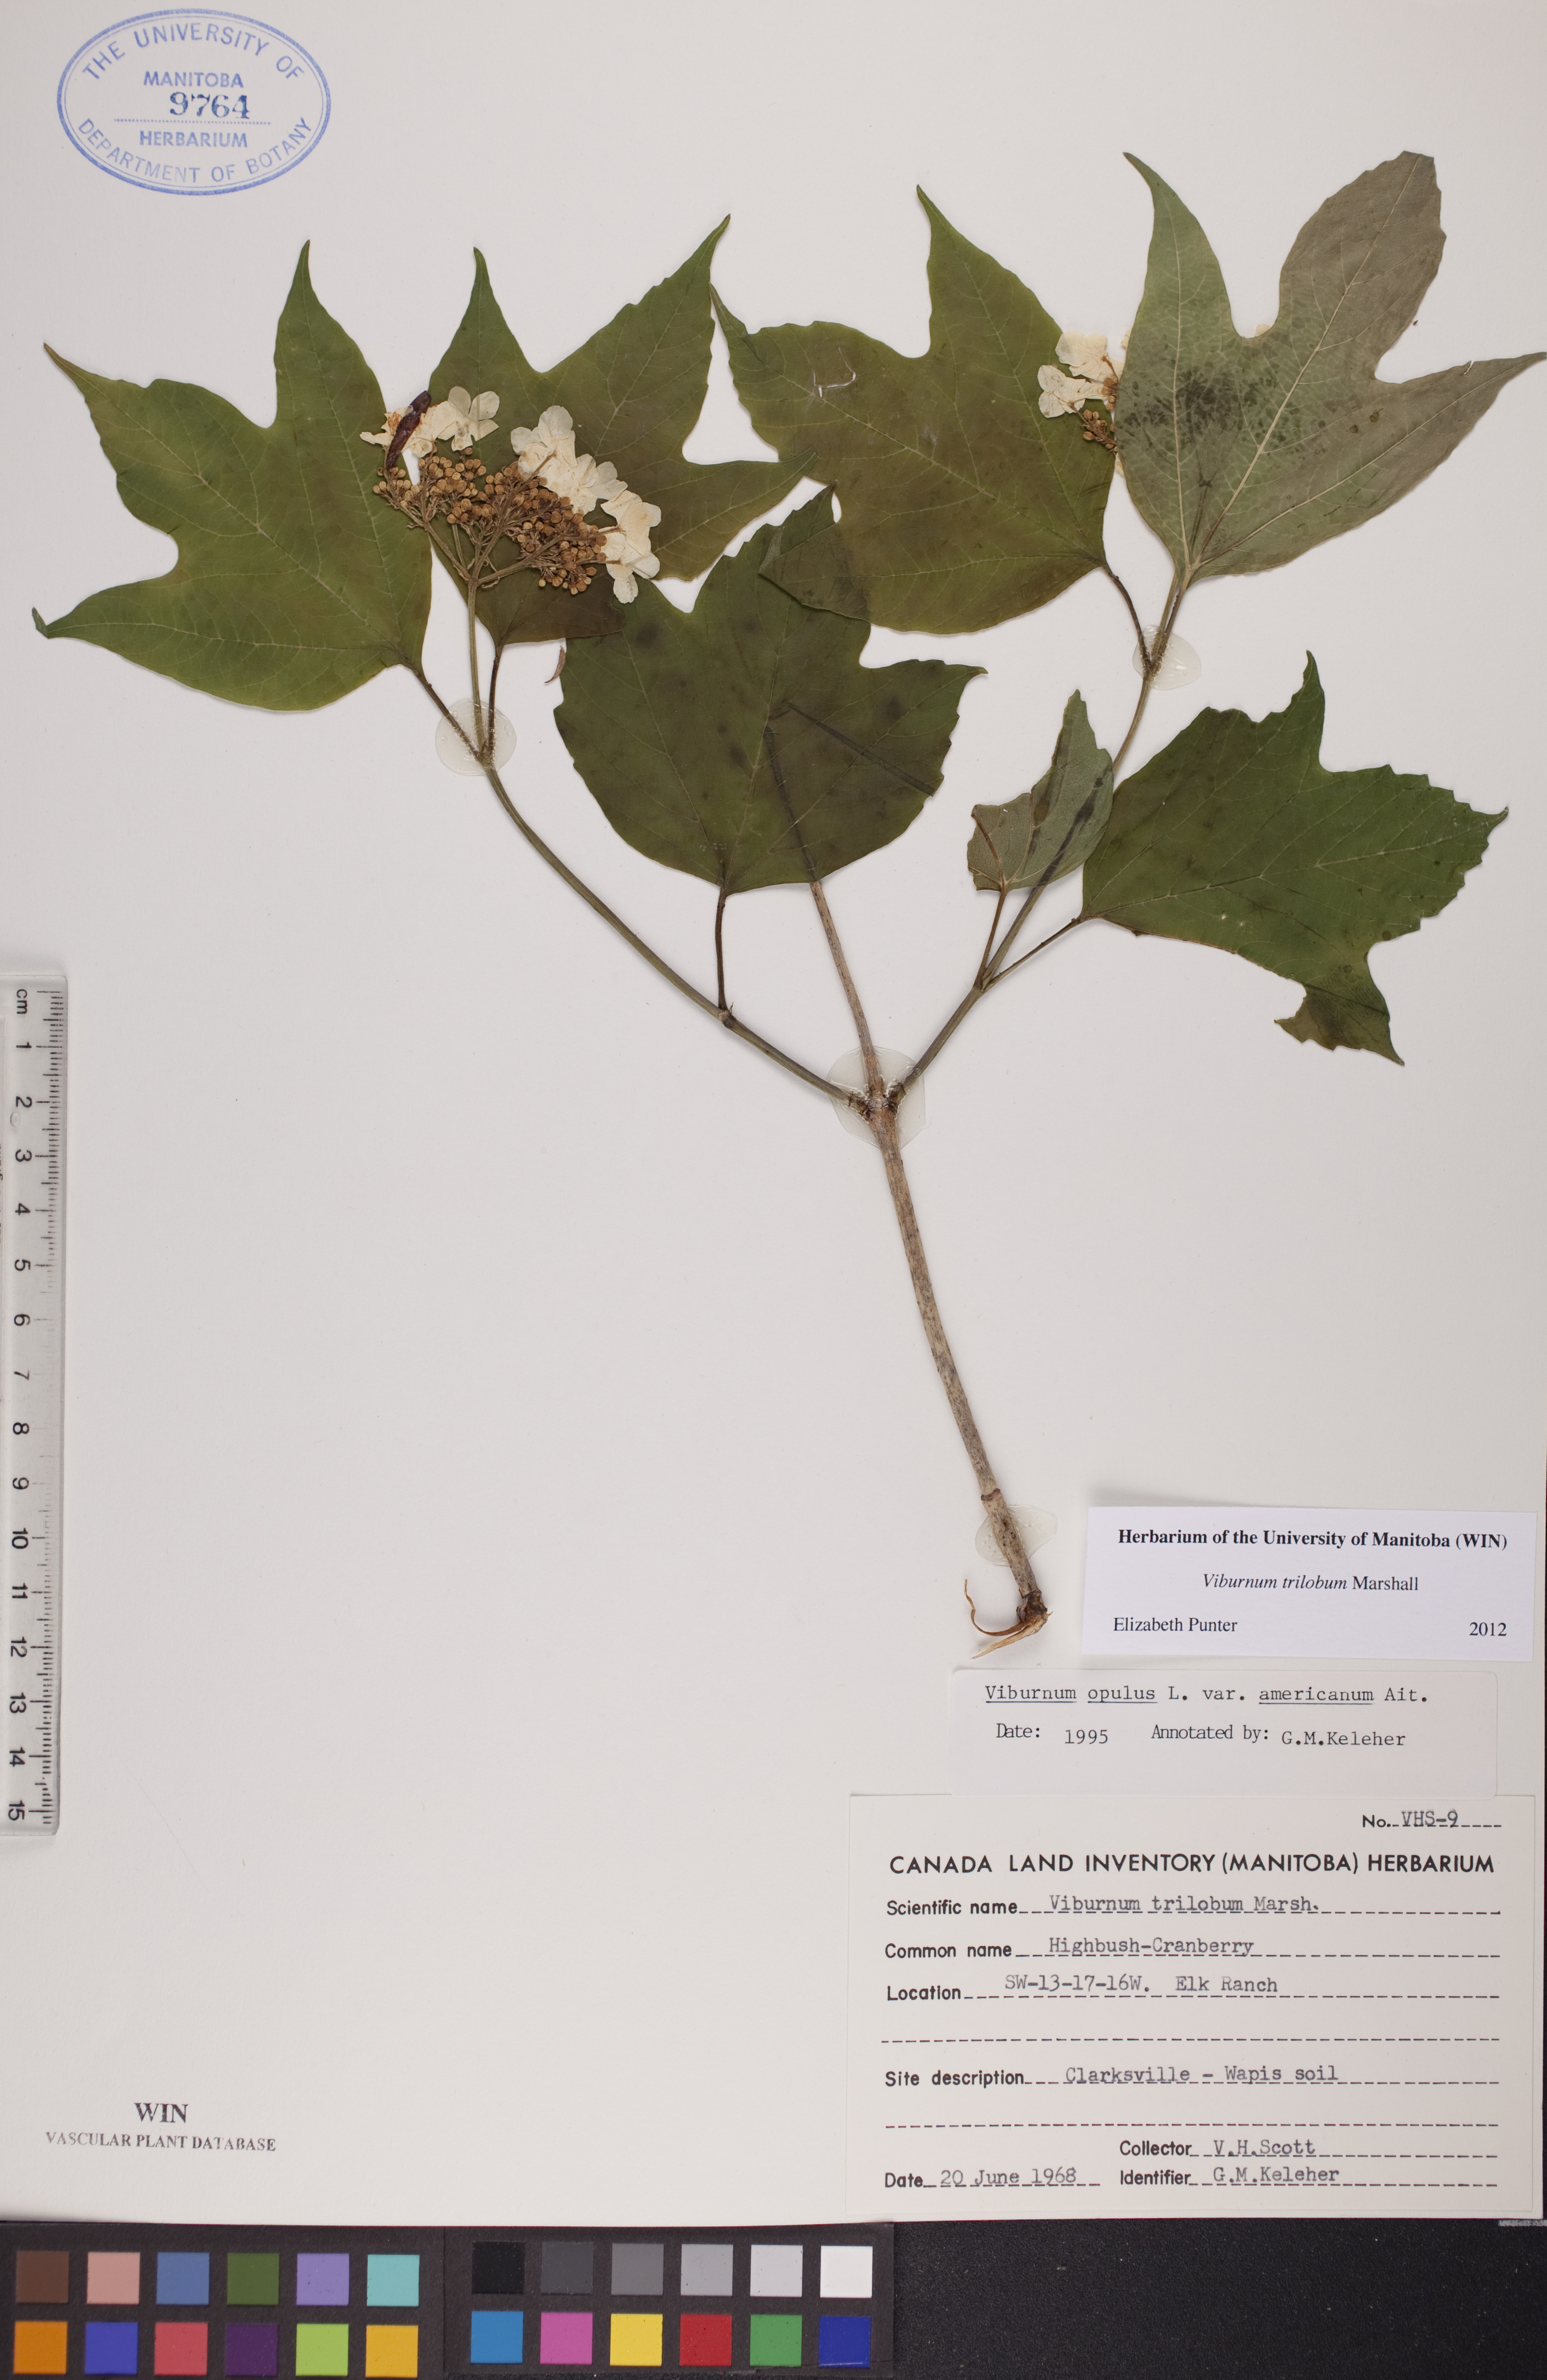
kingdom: Plantae
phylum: Tracheophyta
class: Magnoliopsida
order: Dipsacales
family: Viburnaceae
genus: Viburnum
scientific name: Viburnum trilobum
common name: American cranberrybush
